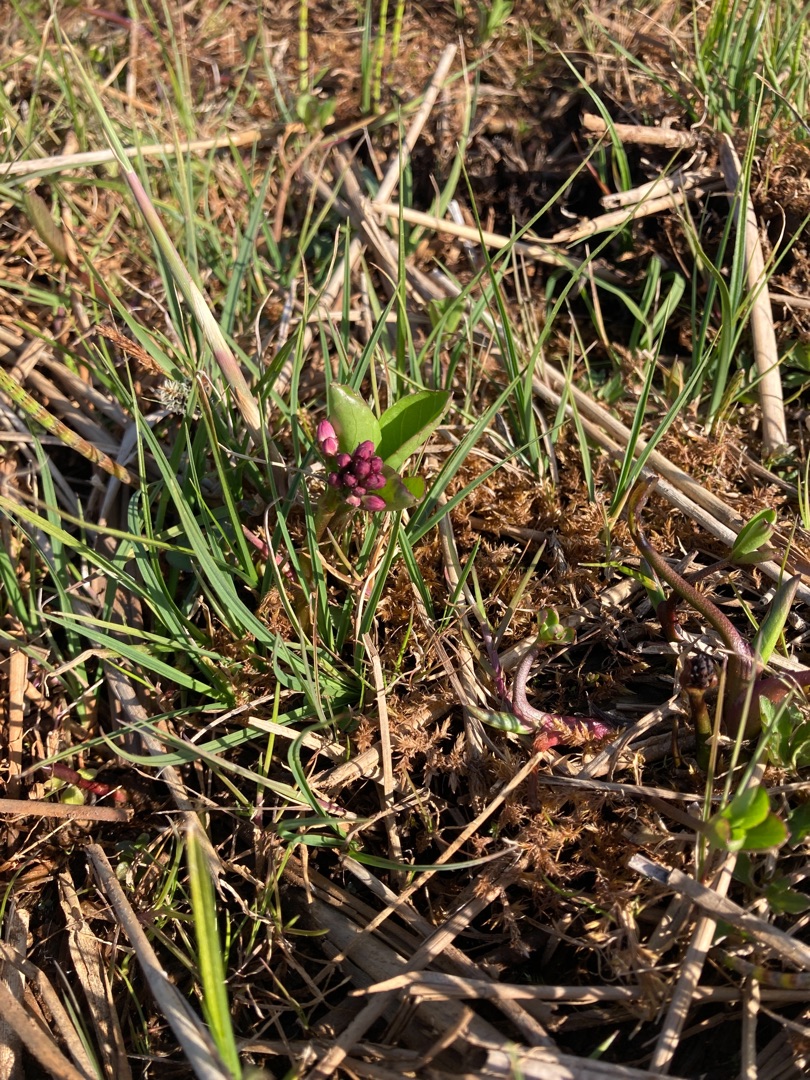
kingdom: Plantae
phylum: Tracheophyta
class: Magnoliopsida
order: Asterales
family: Menyanthaceae
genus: Menyanthes
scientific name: Menyanthes trifoliata
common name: Bukkeblad
